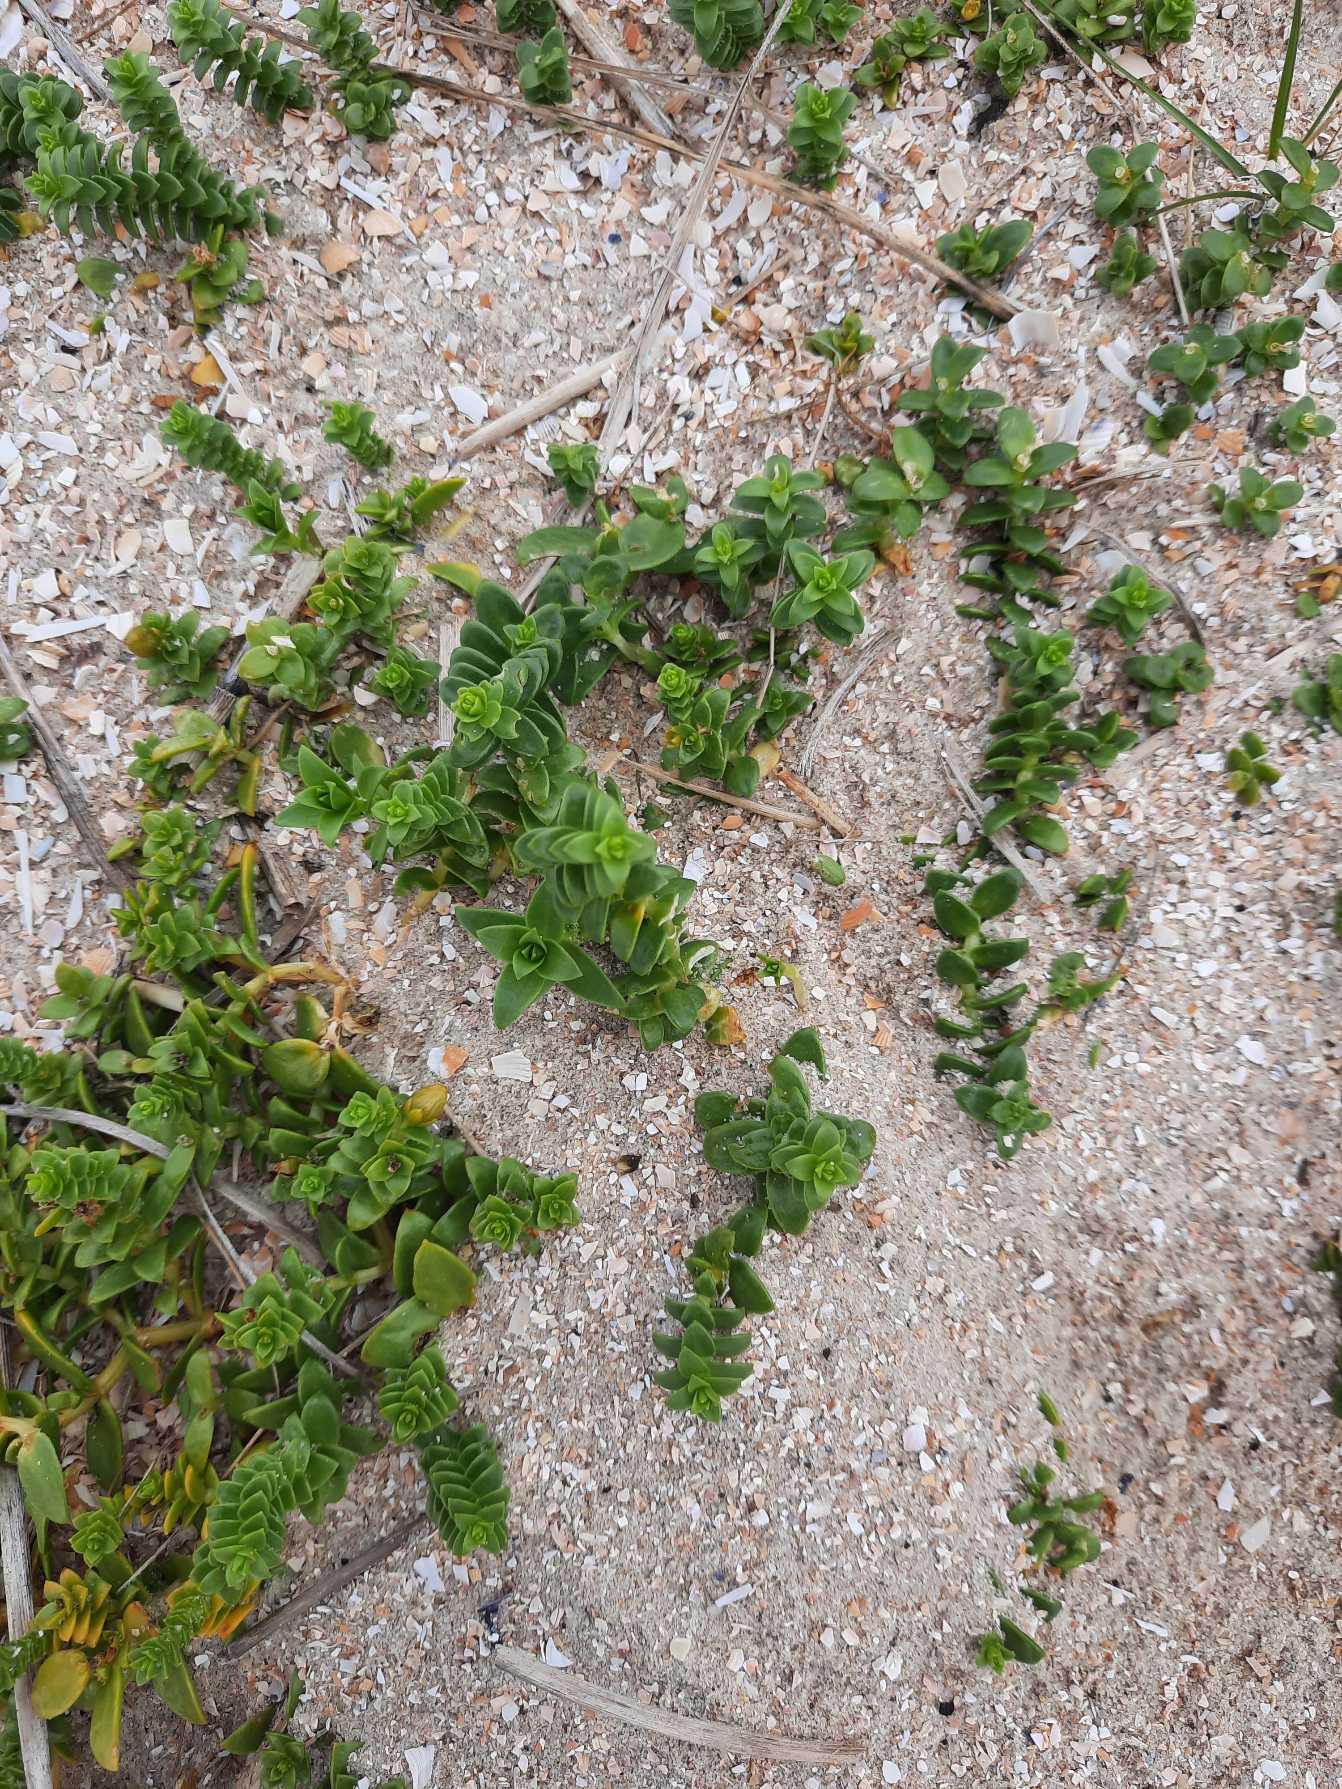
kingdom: Plantae
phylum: Tracheophyta
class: Magnoliopsida
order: Caryophyllales
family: Caryophyllaceae
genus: Honckenya
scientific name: Honckenya peploides
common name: Strandarve
